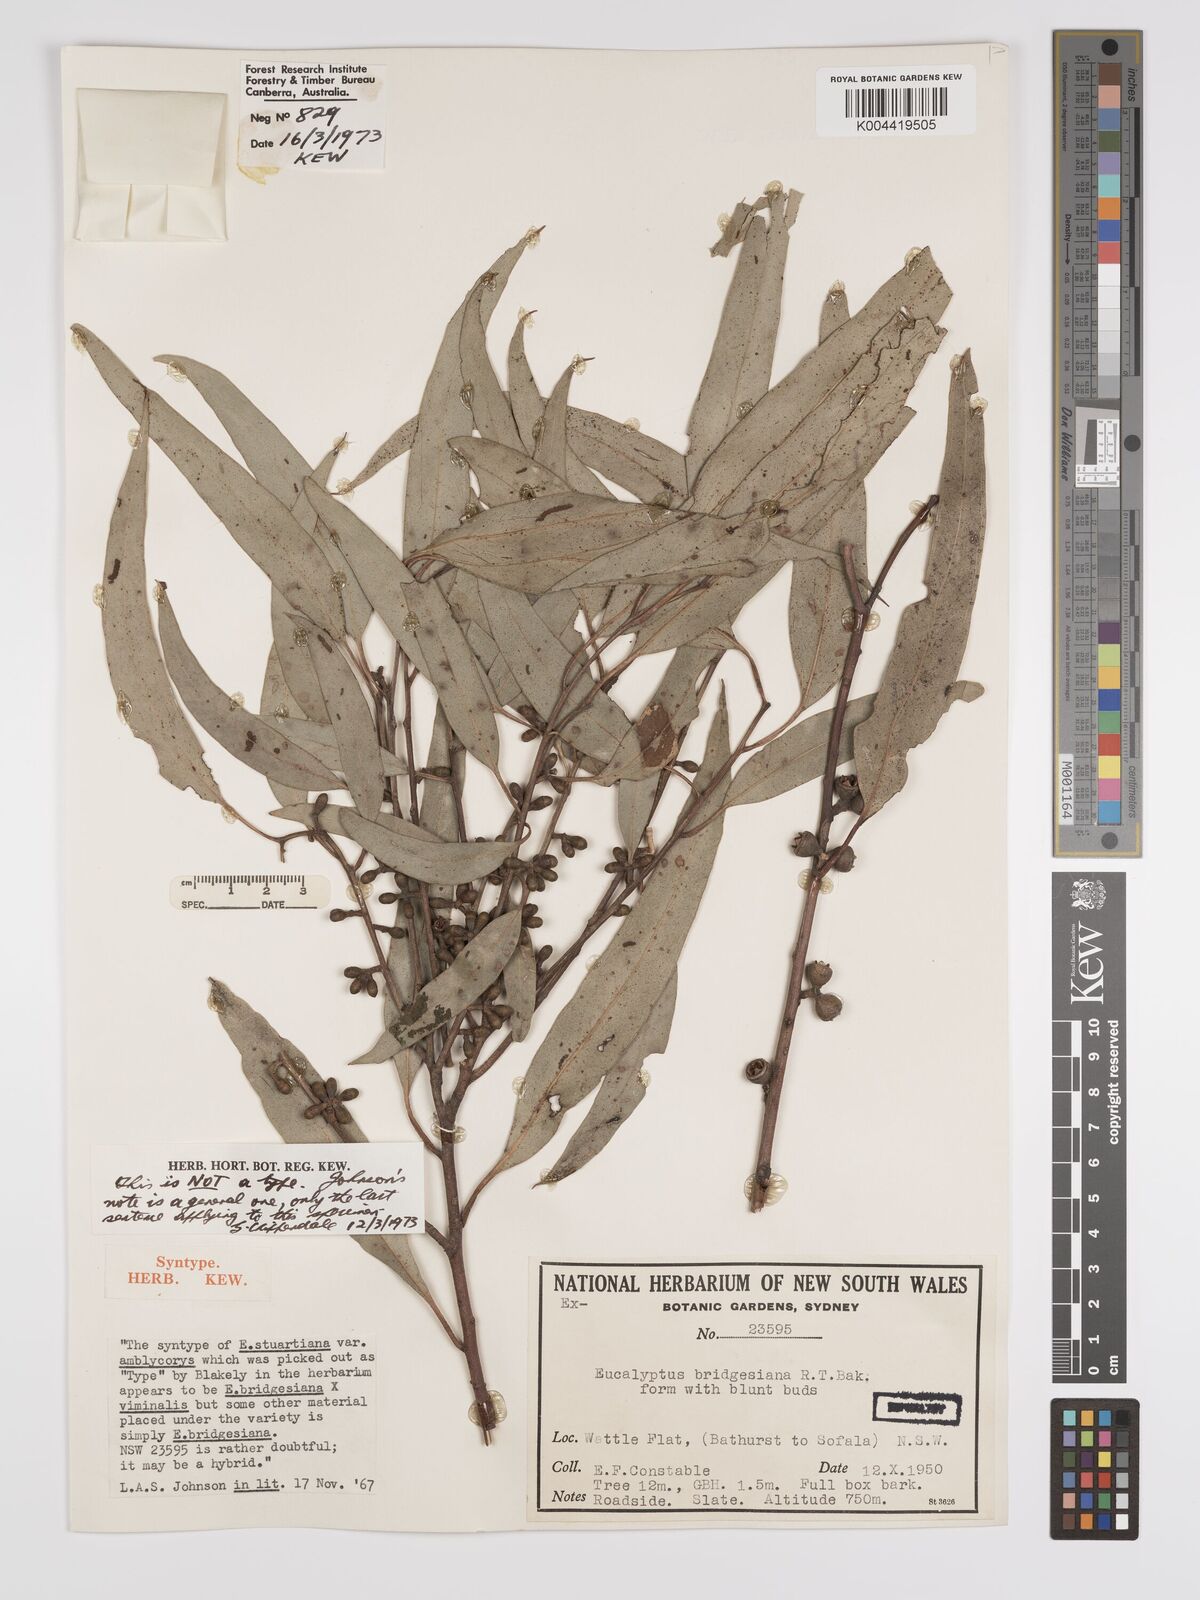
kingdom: Plantae
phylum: Tracheophyta
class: Magnoliopsida
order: Myrtales
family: Myrtaceae
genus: Eucalyptus
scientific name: Eucalyptus ovata
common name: Black-gum
